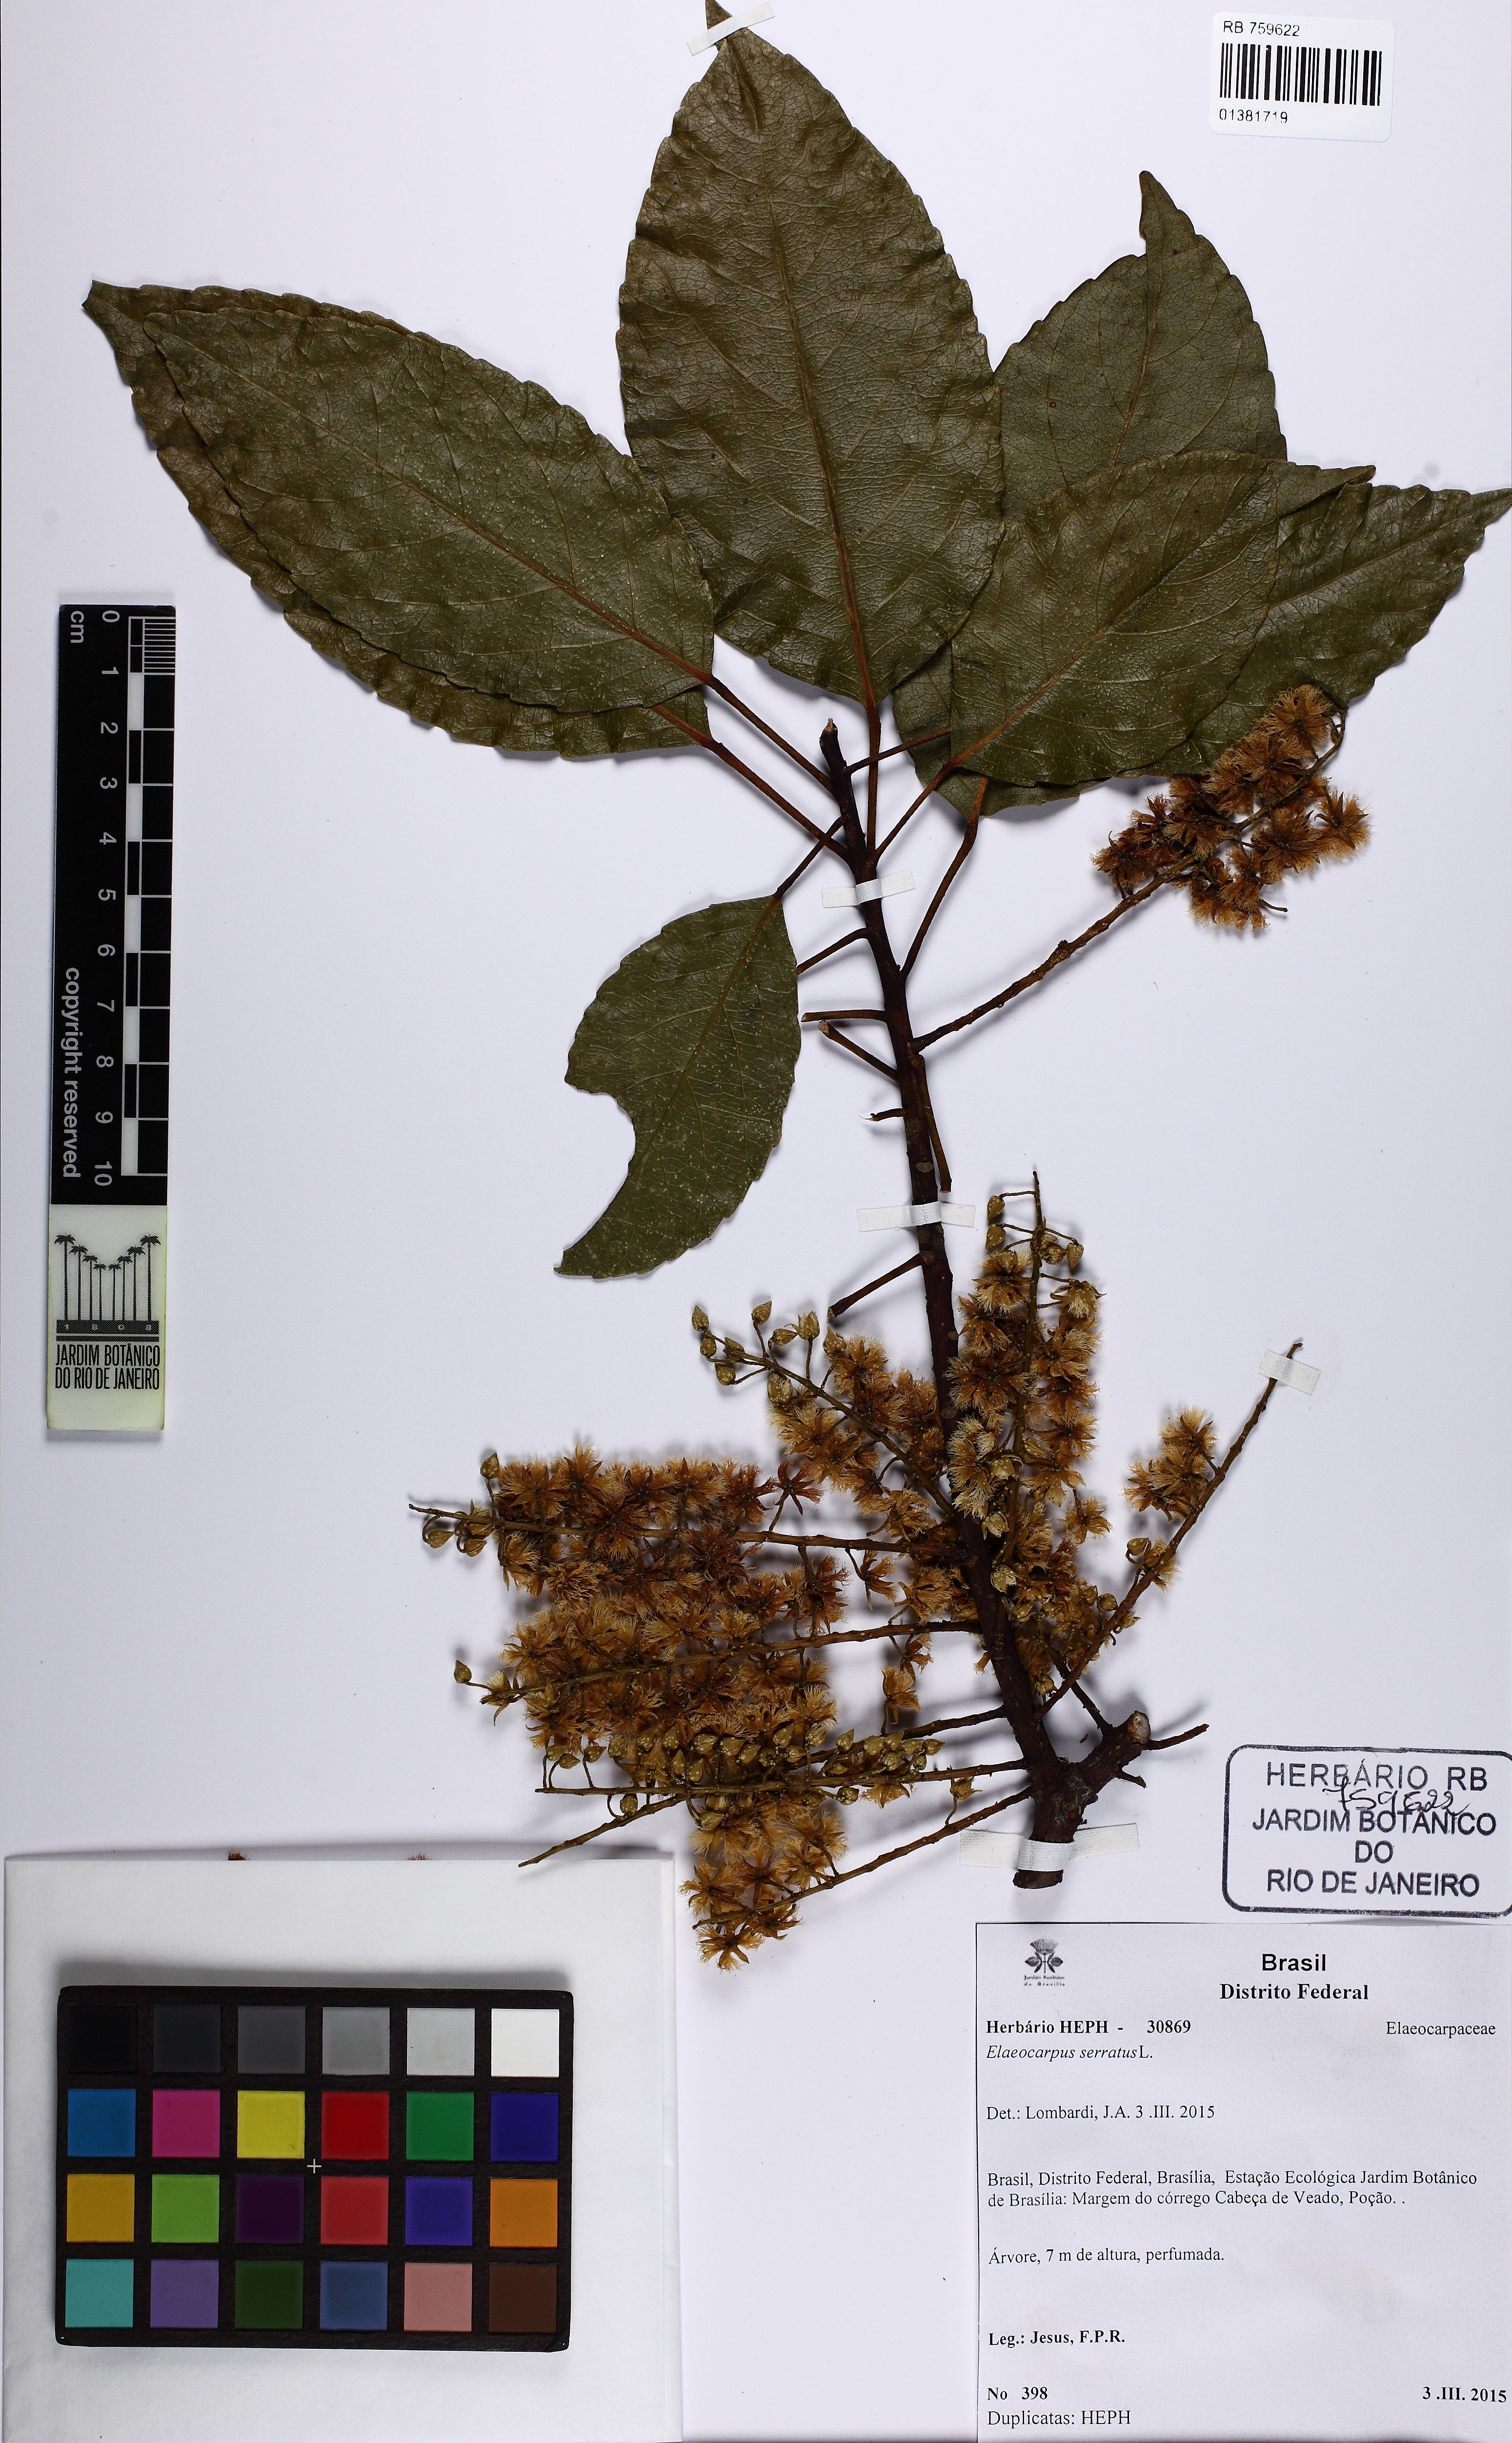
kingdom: Plantae
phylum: Tracheophyta
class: Magnoliopsida
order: Oxalidales
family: Elaeocarpaceae
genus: Elaeocarpus
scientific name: Elaeocarpus serratus
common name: Ceylon-olive
